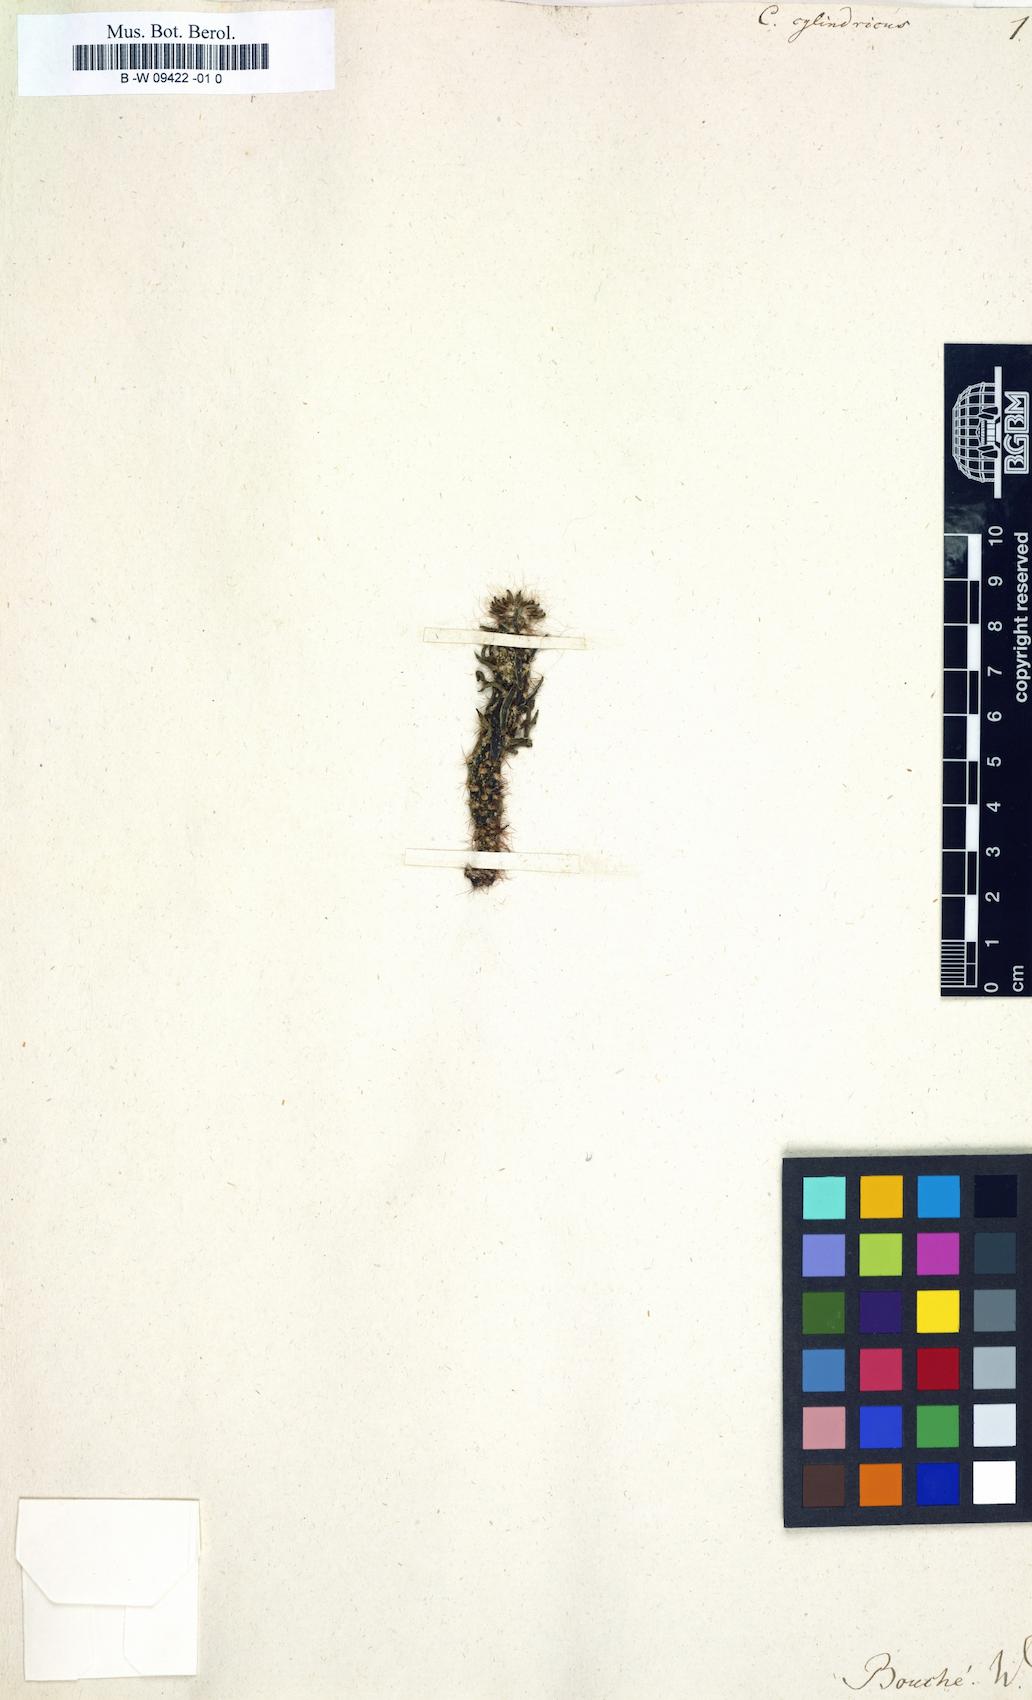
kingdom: Plantae
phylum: Tracheophyta
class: Magnoliopsida
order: Caryophyllales
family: Cactaceae
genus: Austrocylindropuntia
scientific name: Austrocylindropuntia cylindrica
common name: Cane cactus
